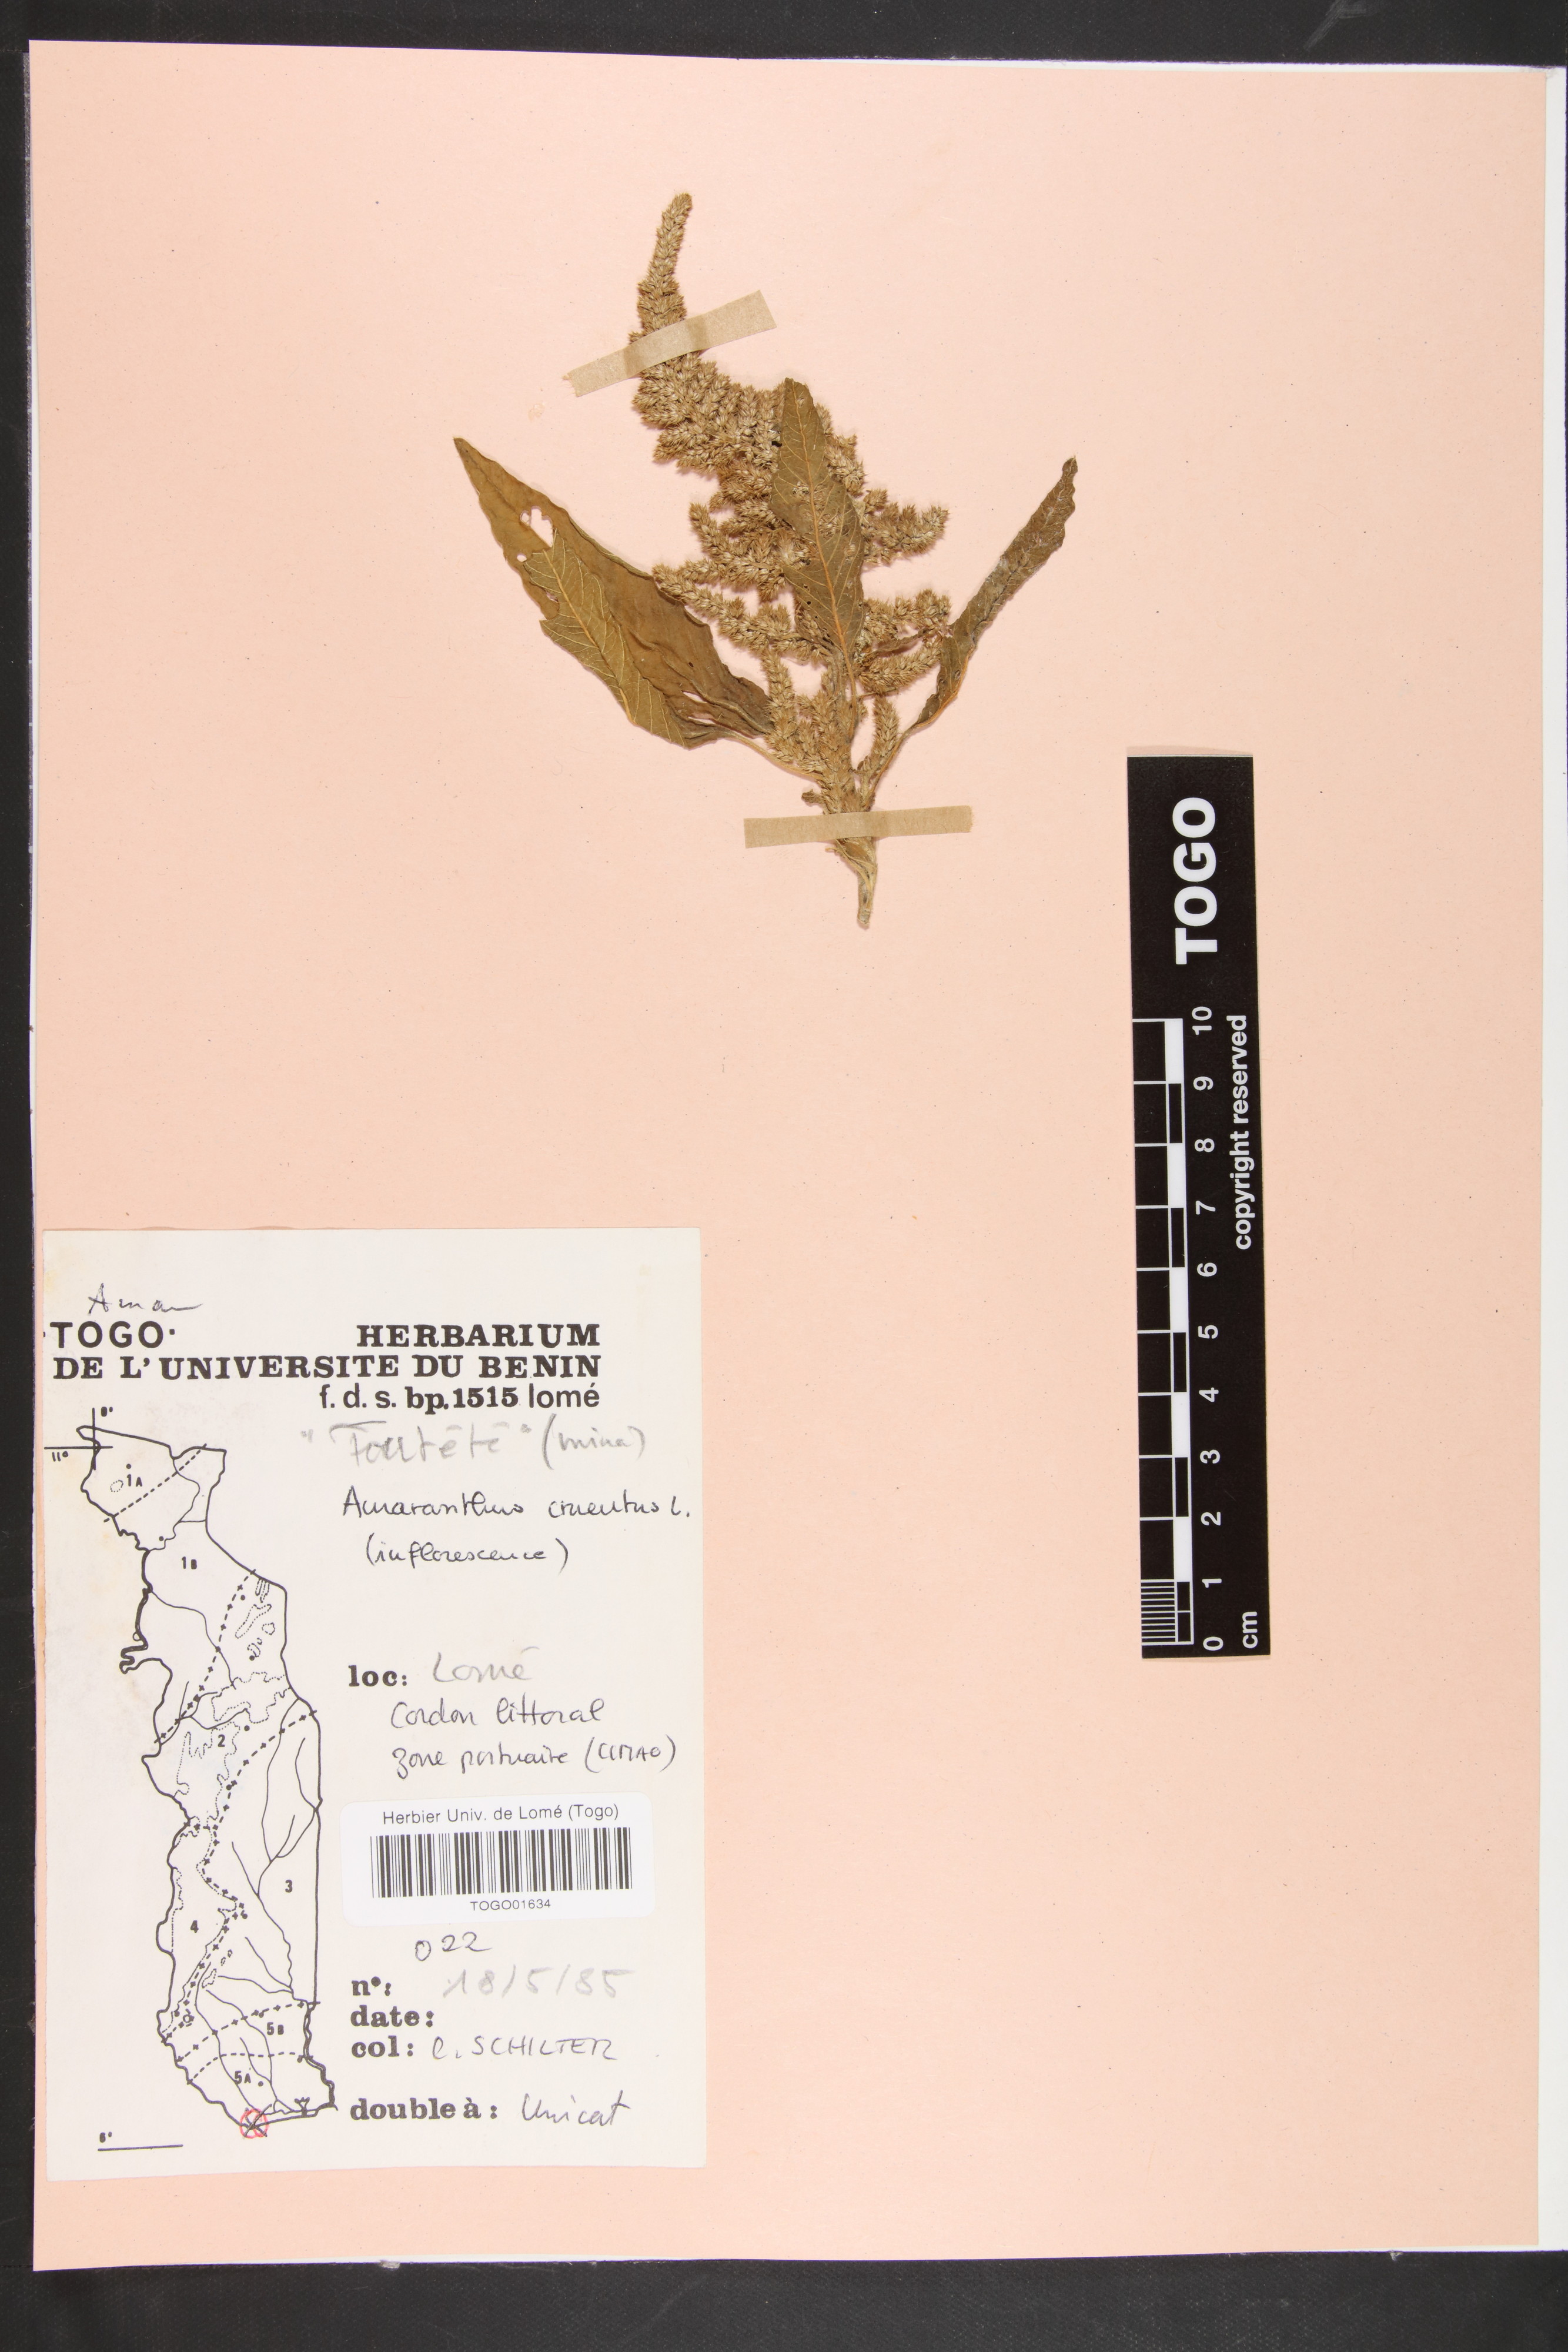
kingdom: Plantae
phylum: Tracheophyta
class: Magnoliopsida
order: Caryophyllales
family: Amaranthaceae
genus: Amaranthus
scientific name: Amaranthus cruentus
